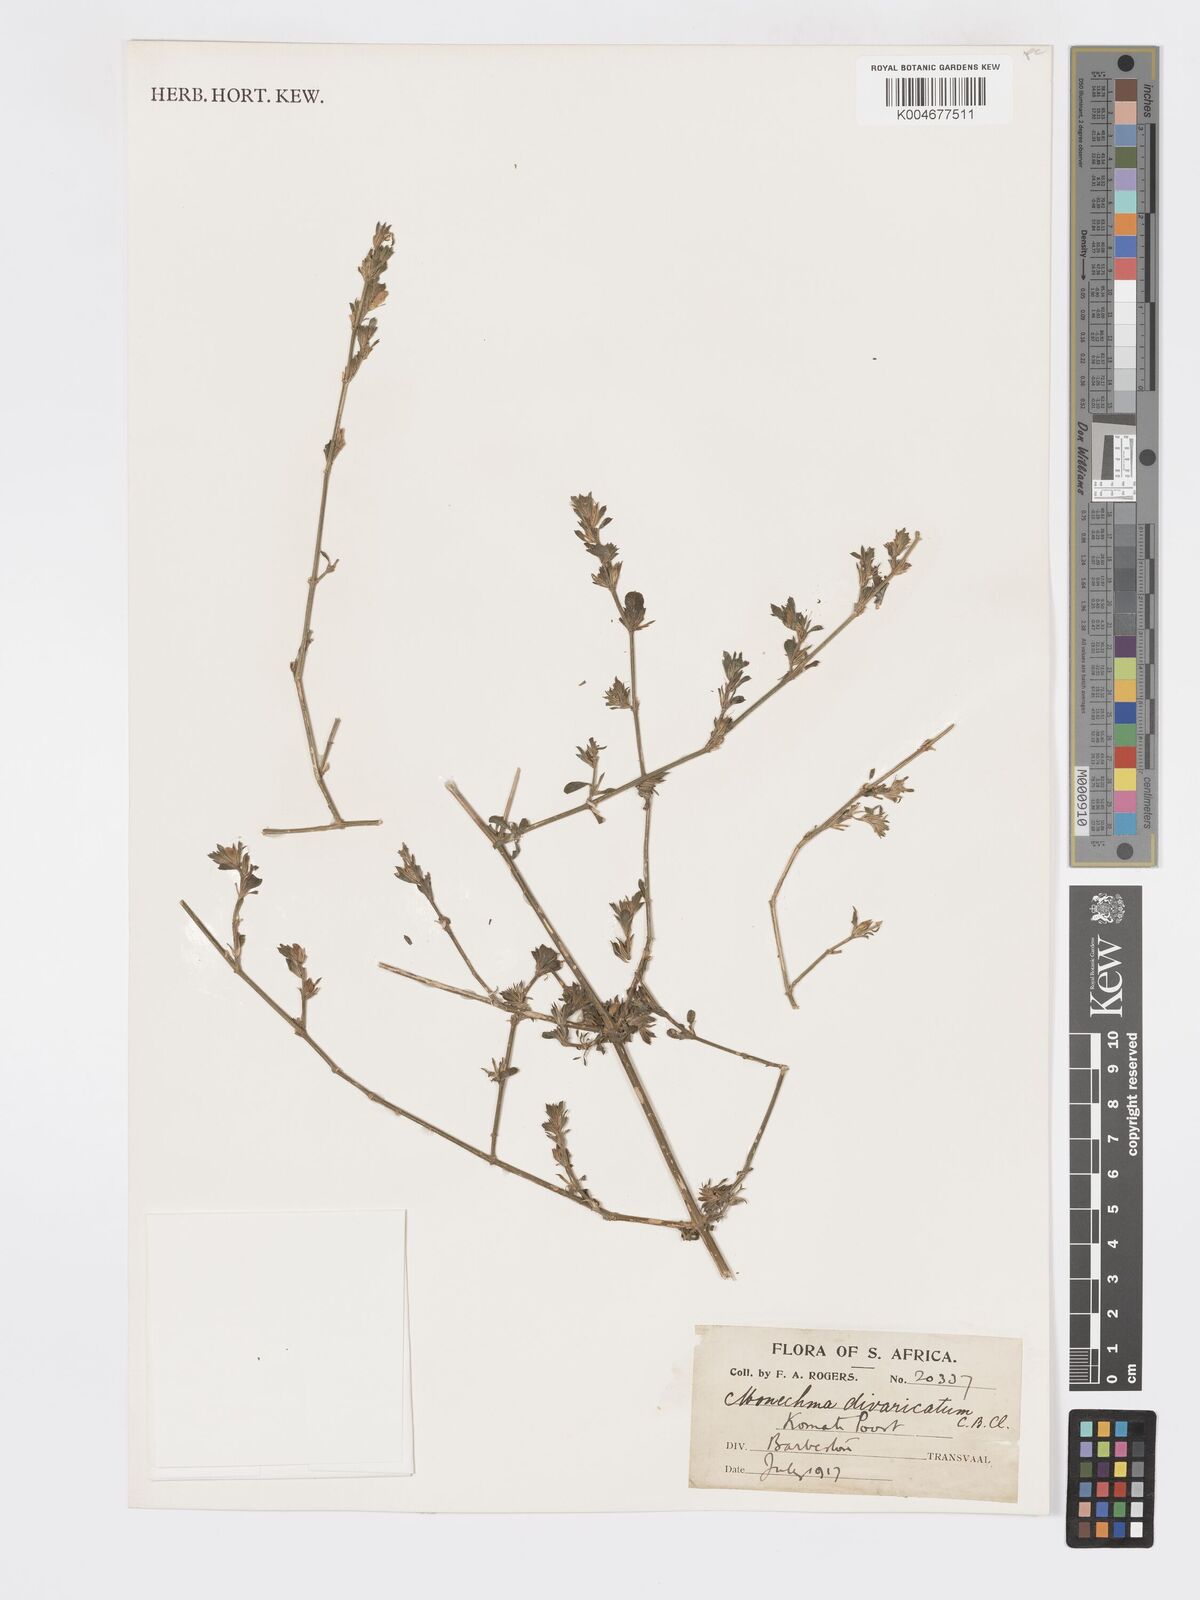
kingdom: Plantae
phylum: Tracheophyta
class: Magnoliopsida
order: Lamiales
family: Acanthaceae
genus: Pogonospermum
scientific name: Pogonospermum
